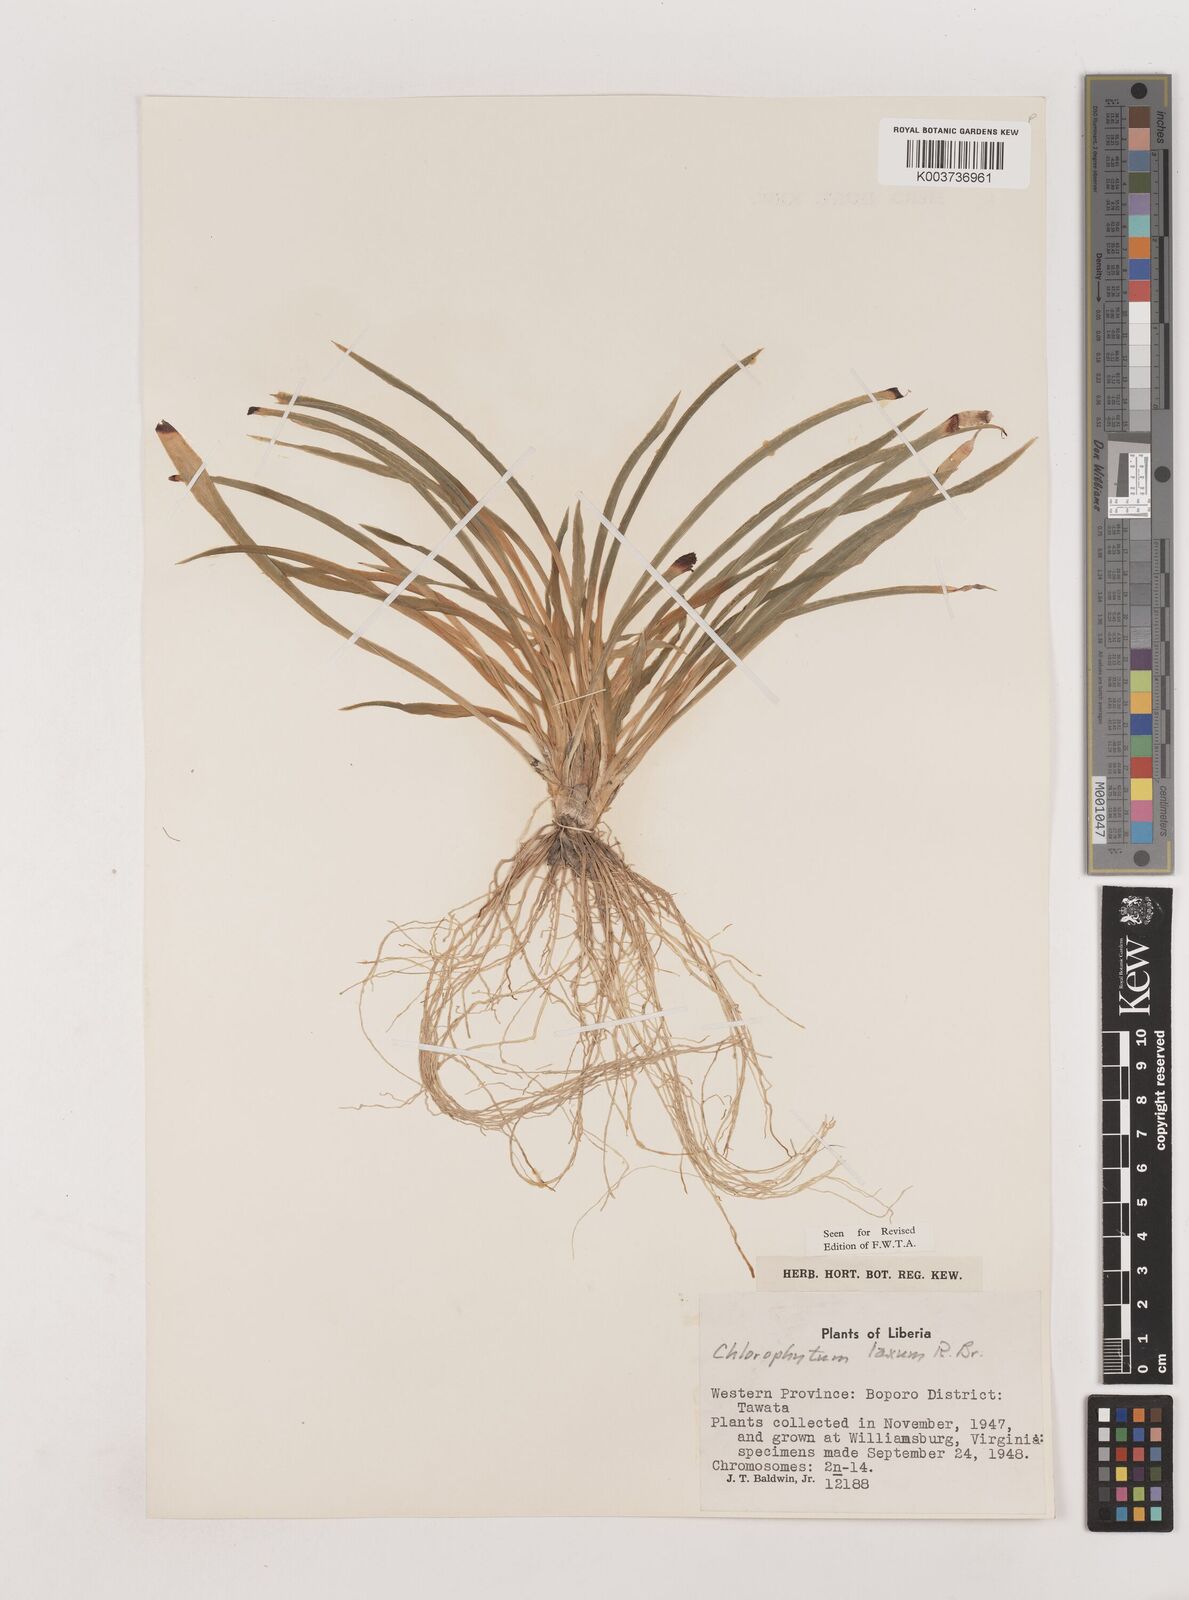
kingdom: Plantae
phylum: Tracheophyta
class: Liliopsida
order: Asparagales
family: Asparagaceae
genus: Chlorophytum
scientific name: Chlorophytum laxum
